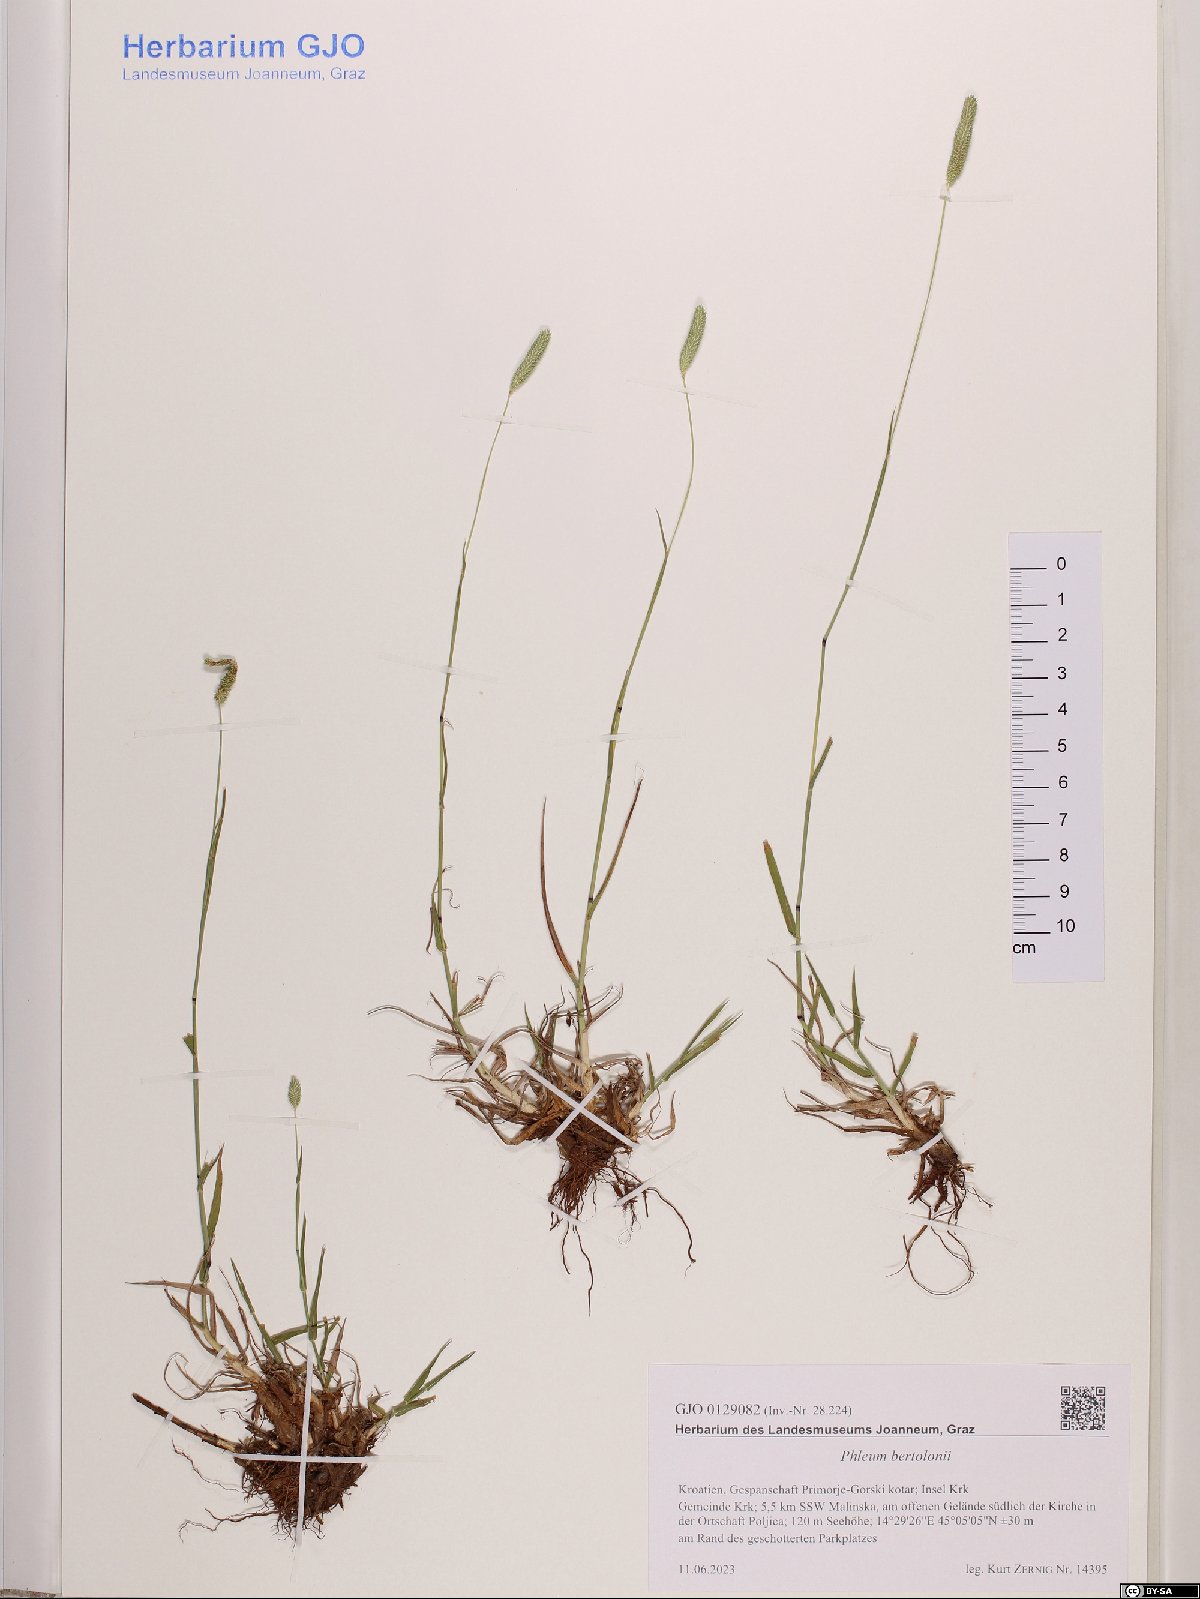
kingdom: Plantae
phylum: Tracheophyta
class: Liliopsida
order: Poales
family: Poaceae
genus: Phleum
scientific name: Phleum bertolonii
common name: Smaller cat's-tail
